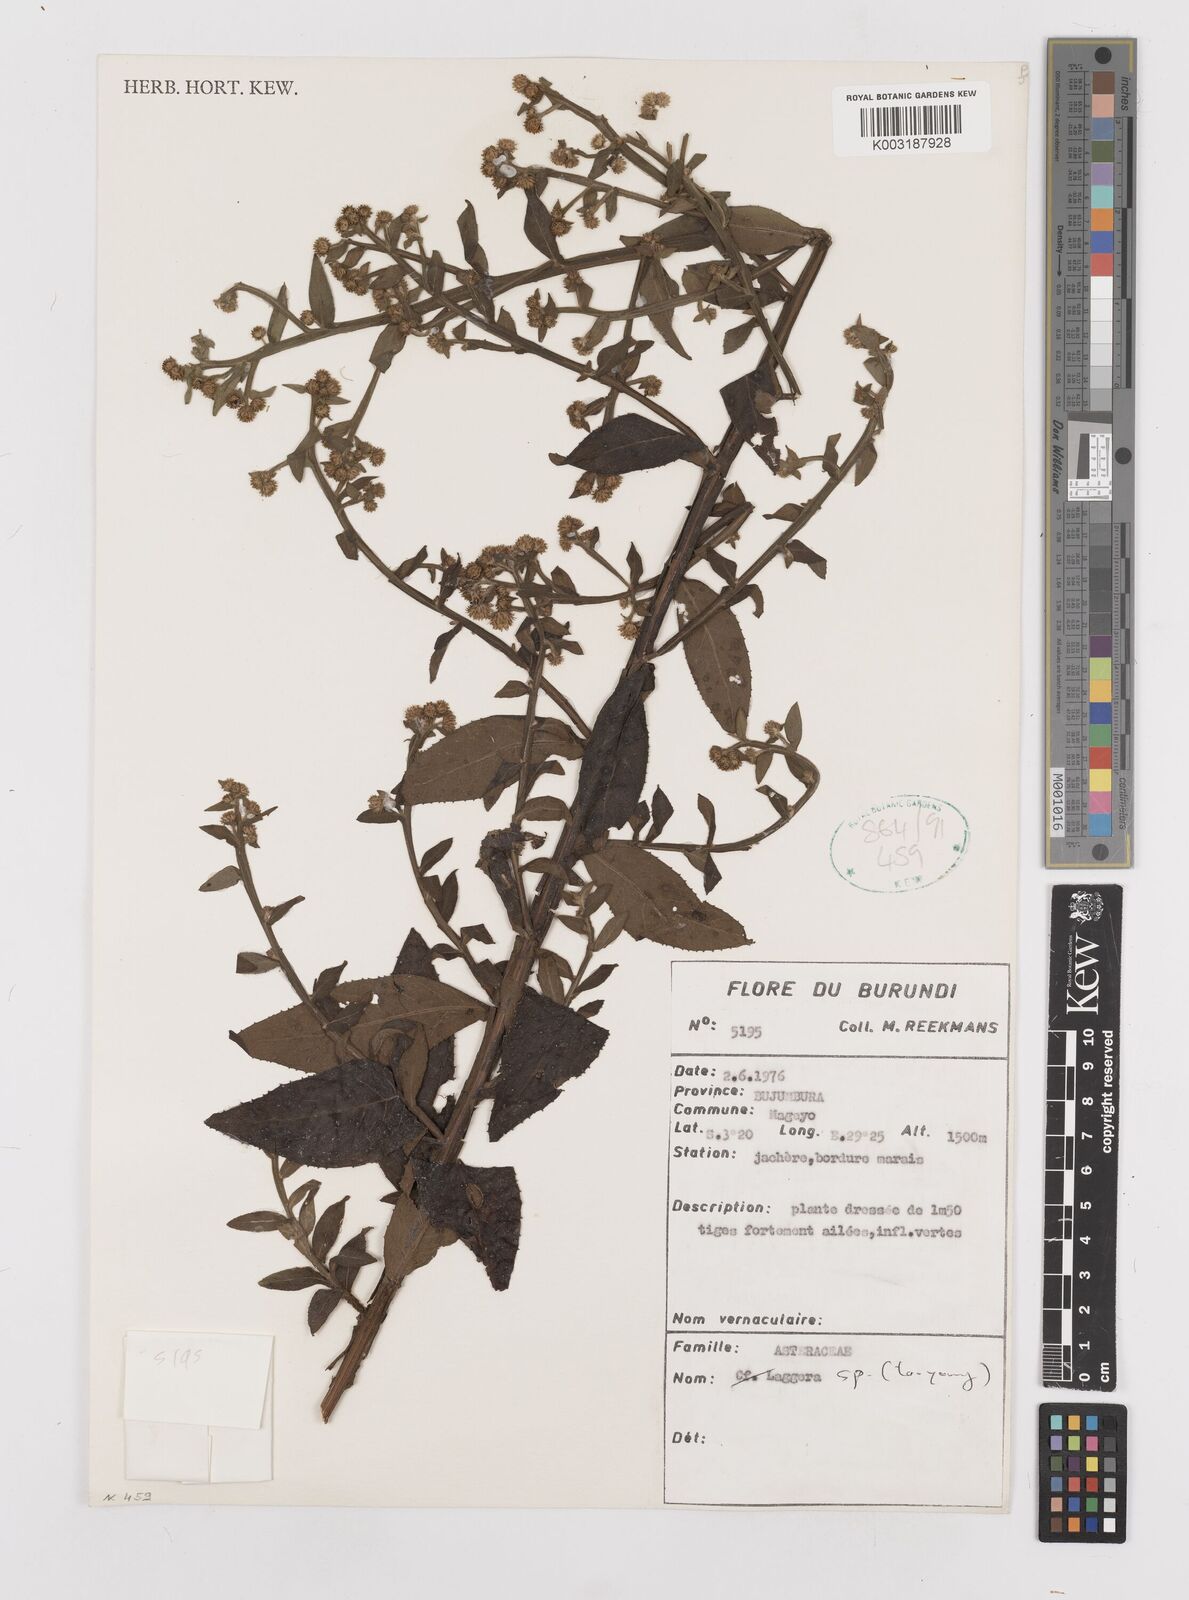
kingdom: Plantae
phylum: Tracheophyta
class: Magnoliopsida
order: Asterales
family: Asteraceae
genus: Laggera
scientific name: Laggera
